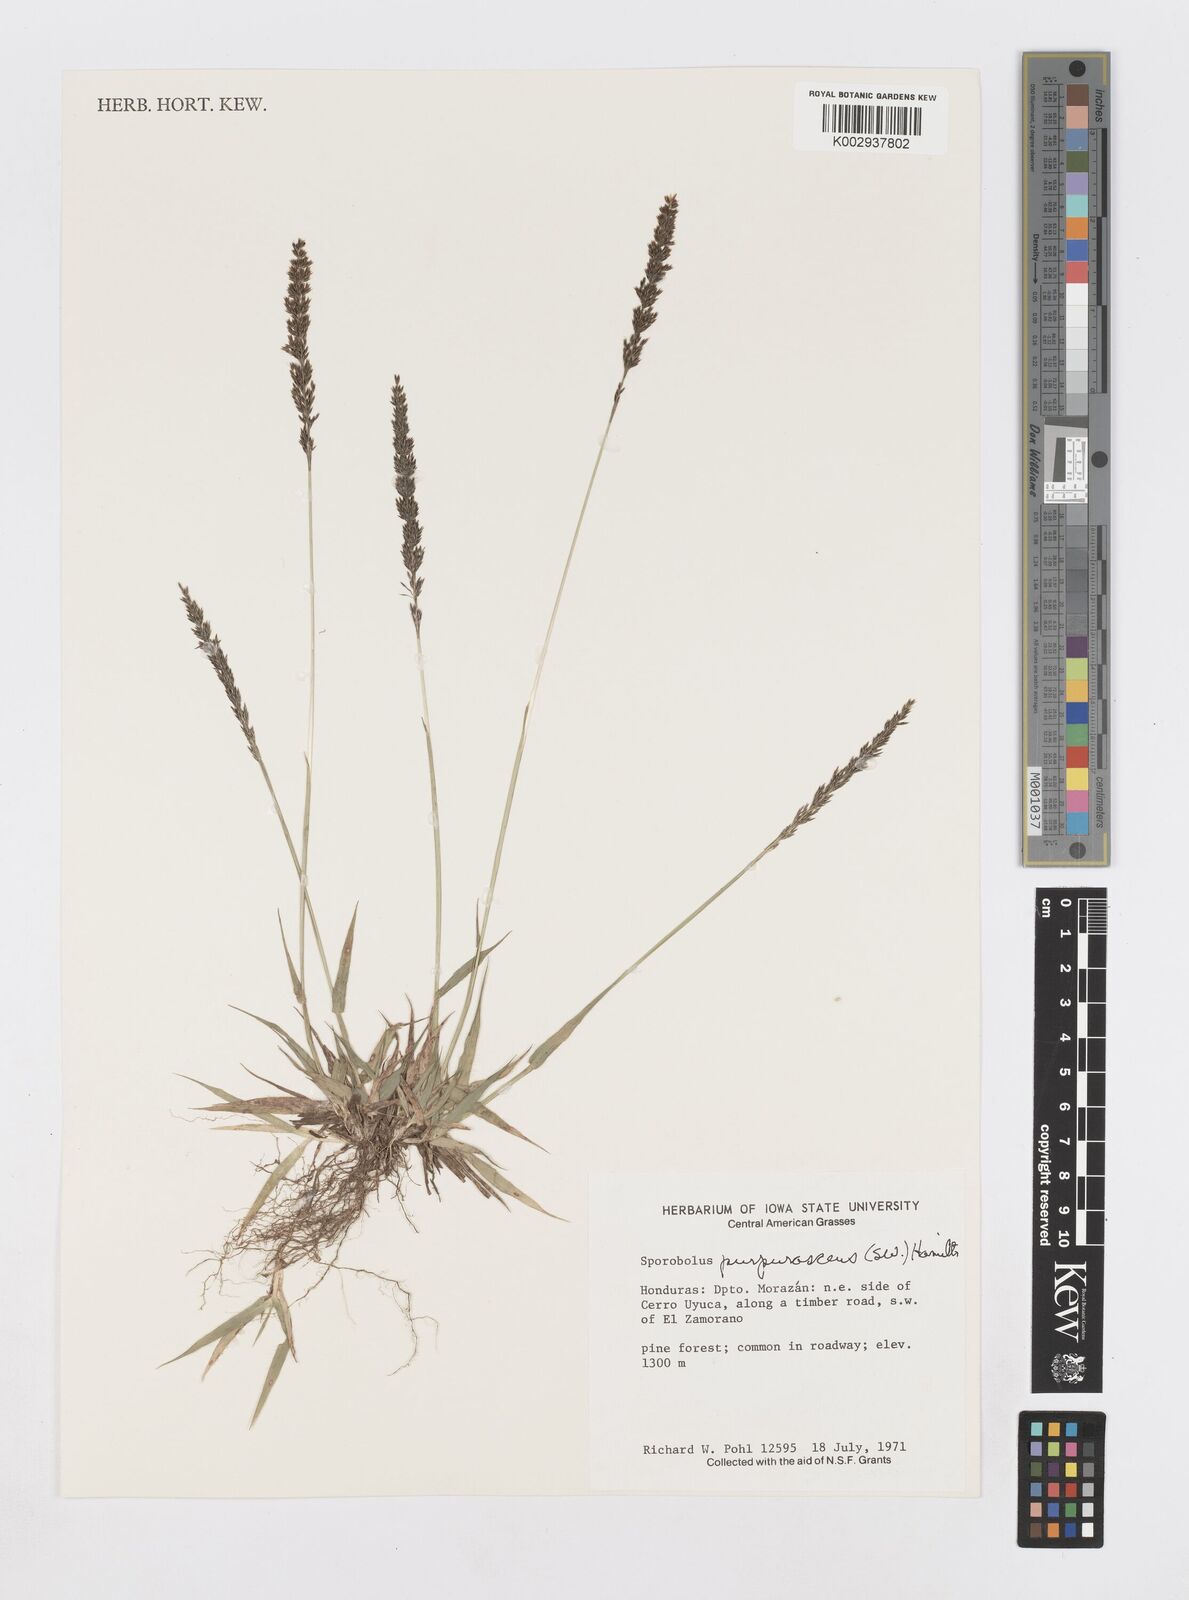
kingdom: Plantae
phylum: Tracheophyta
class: Liliopsida
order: Poales
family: Poaceae
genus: Sporobolus
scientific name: Sporobolus purpurascens
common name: Purple dropseed
